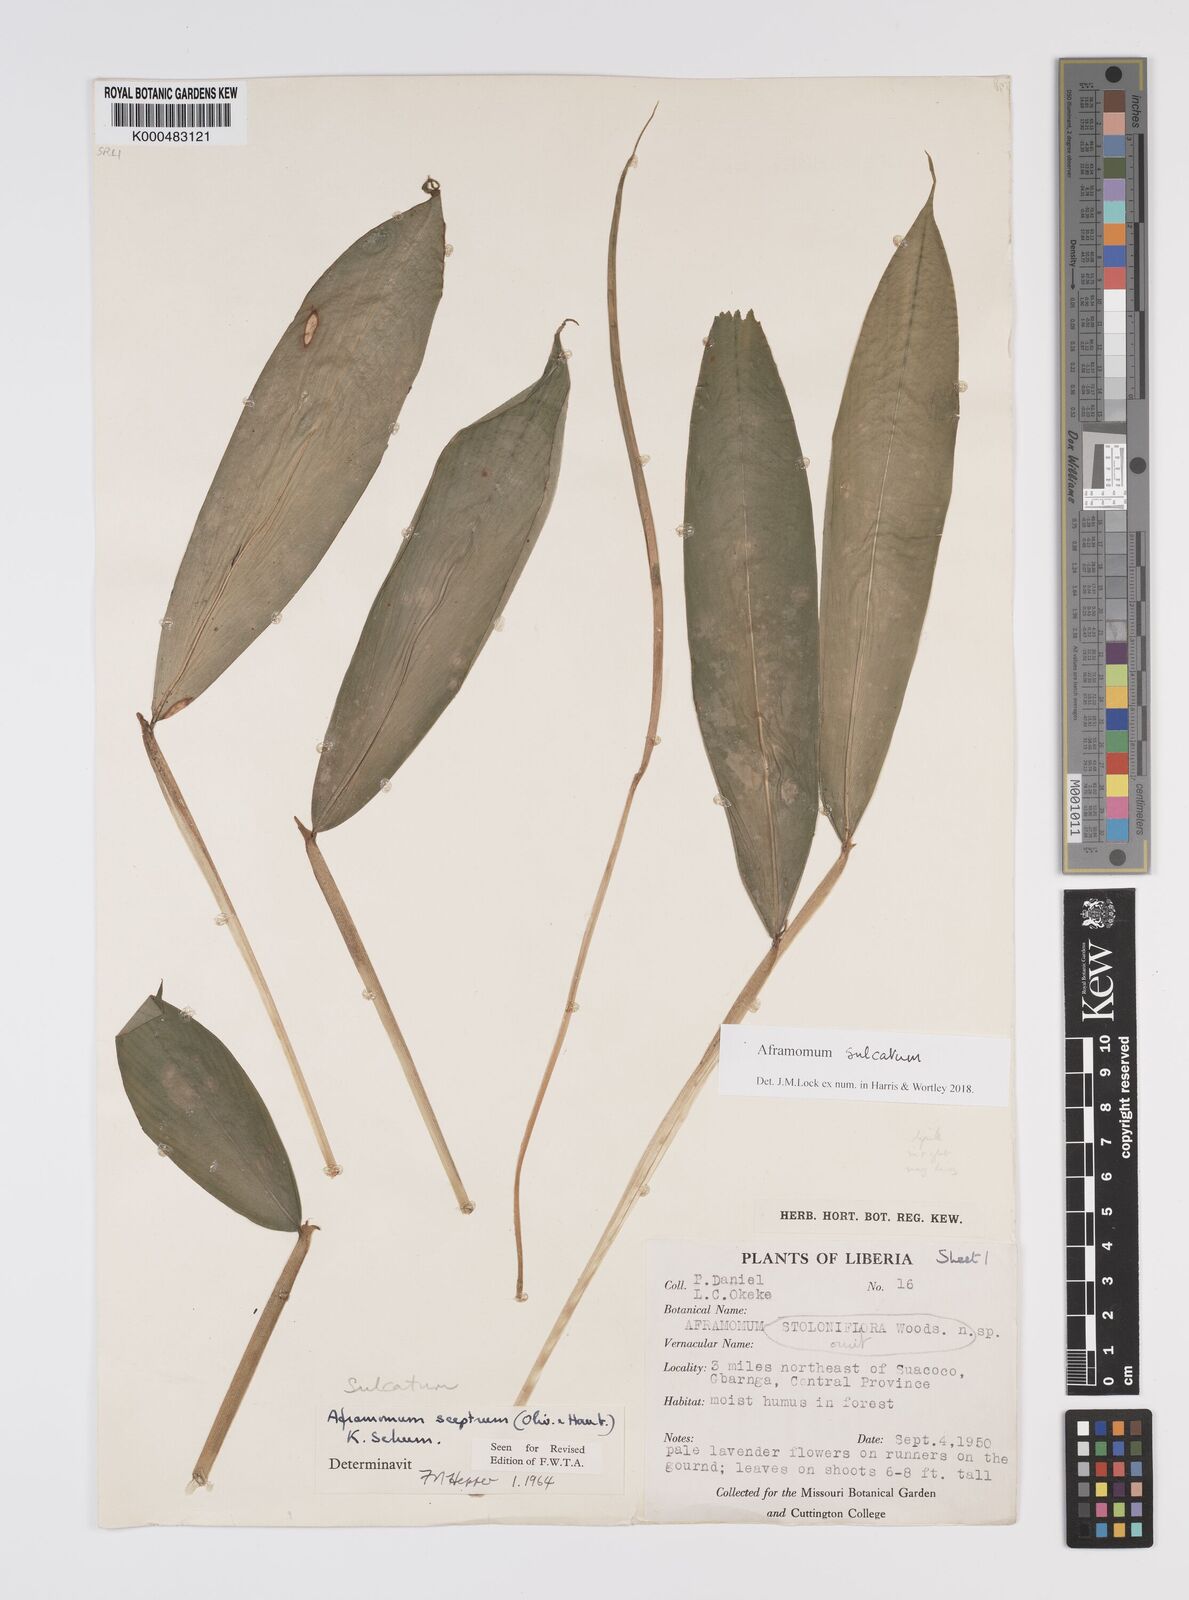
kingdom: Plantae
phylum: Tracheophyta
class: Liliopsida
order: Zingiberales
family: Zingiberaceae
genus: Aframomum
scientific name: Aframomum sulcatum
